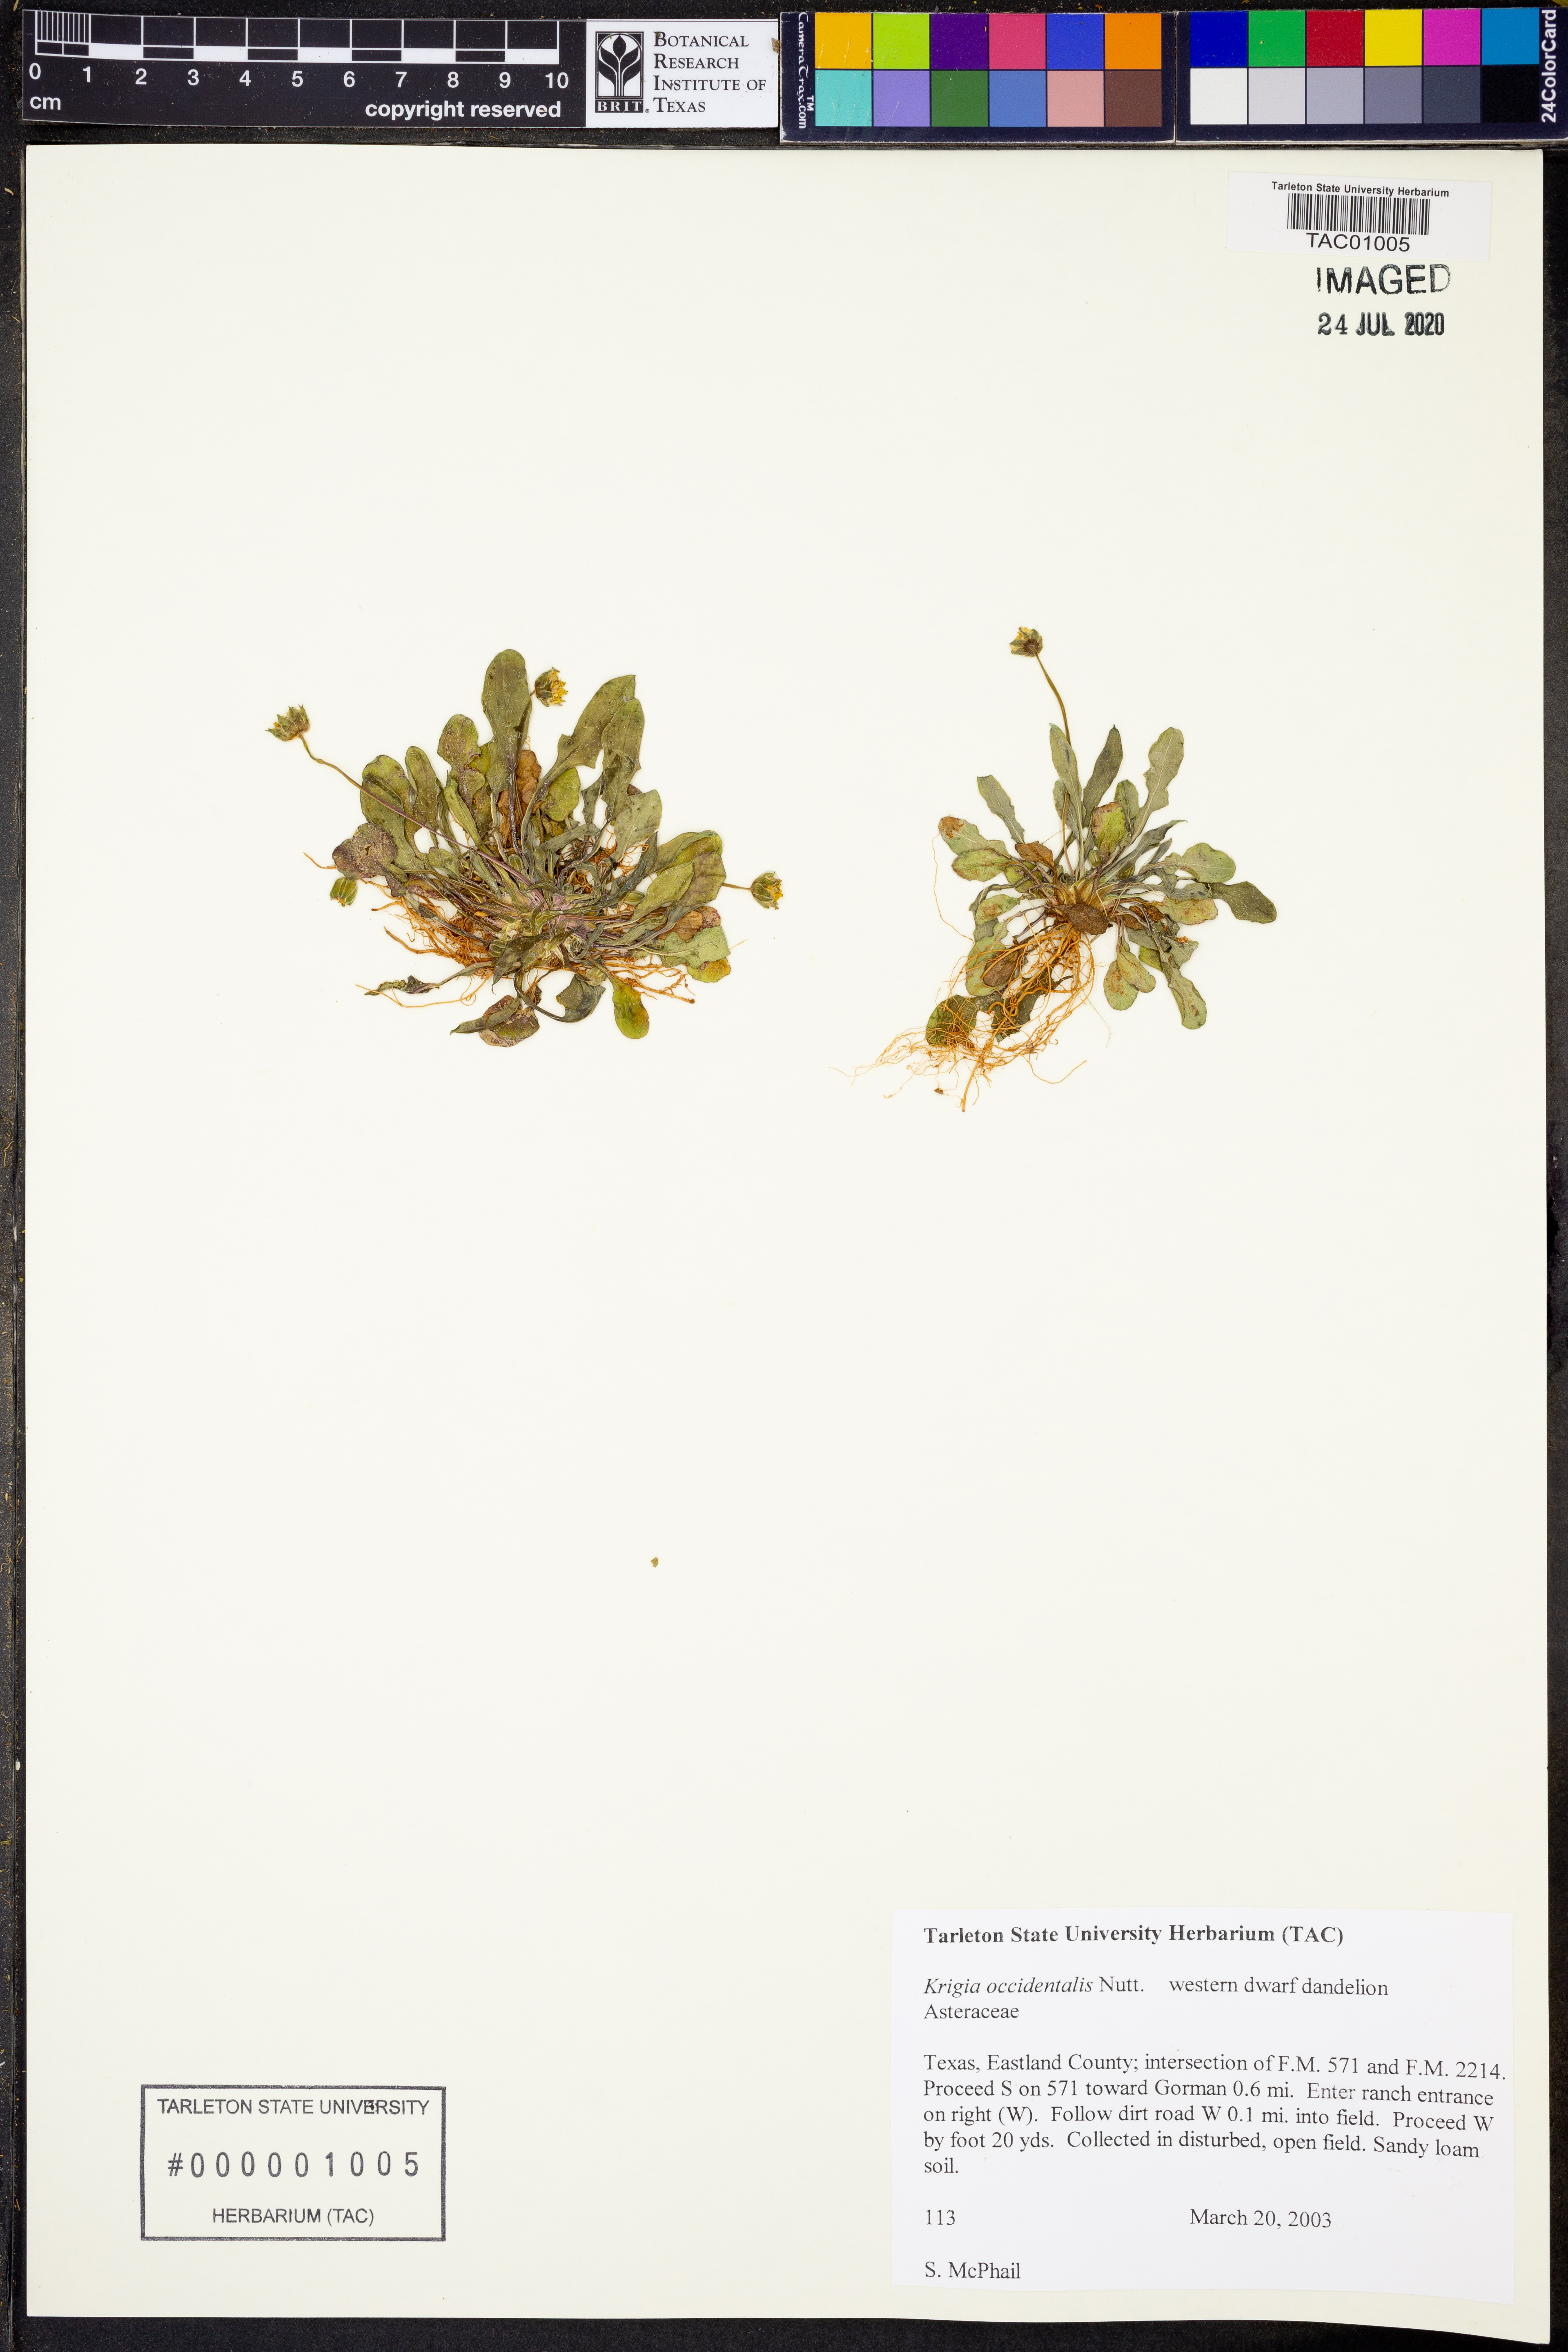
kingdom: Plantae
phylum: Tracheophyta
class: Magnoliopsida
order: Asterales
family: Asteraceae
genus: Krigia
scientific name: Krigia occidentalis
